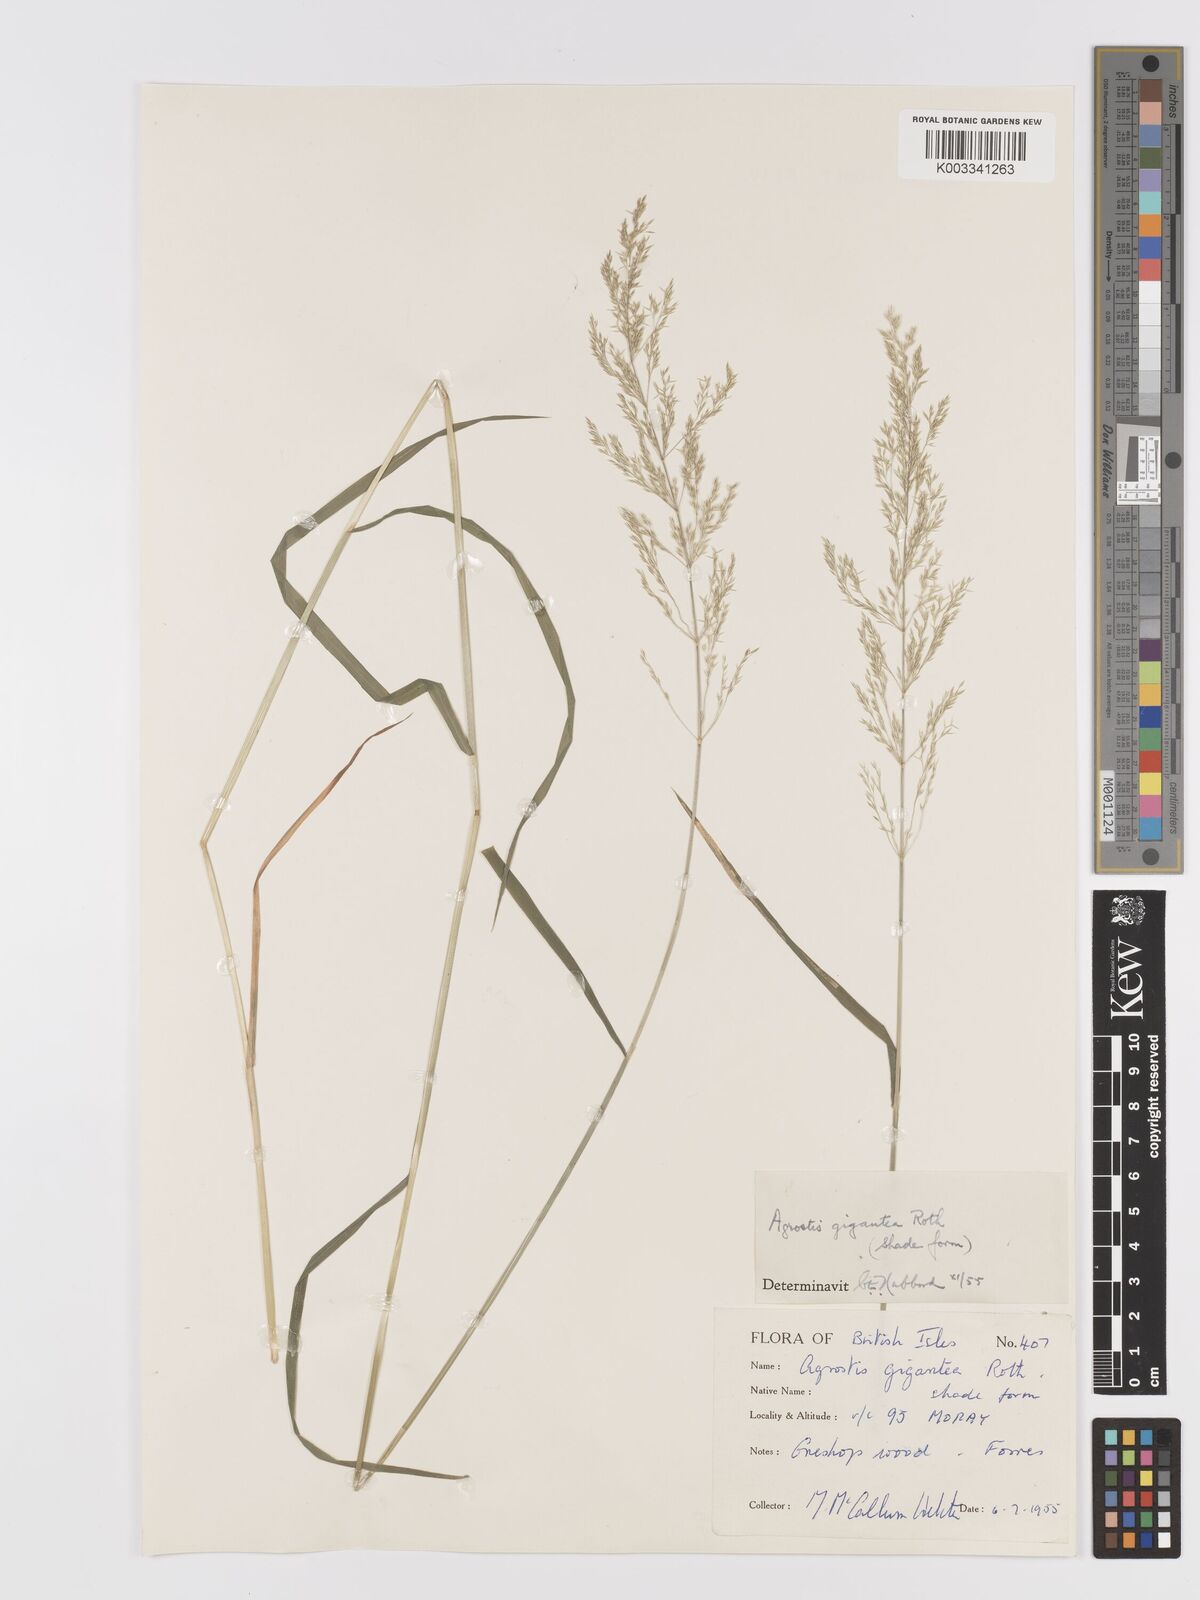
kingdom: Plantae
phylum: Tracheophyta
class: Liliopsida
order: Poales
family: Poaceae
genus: Agrostis
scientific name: Agrostis gigantea
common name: Black bent
